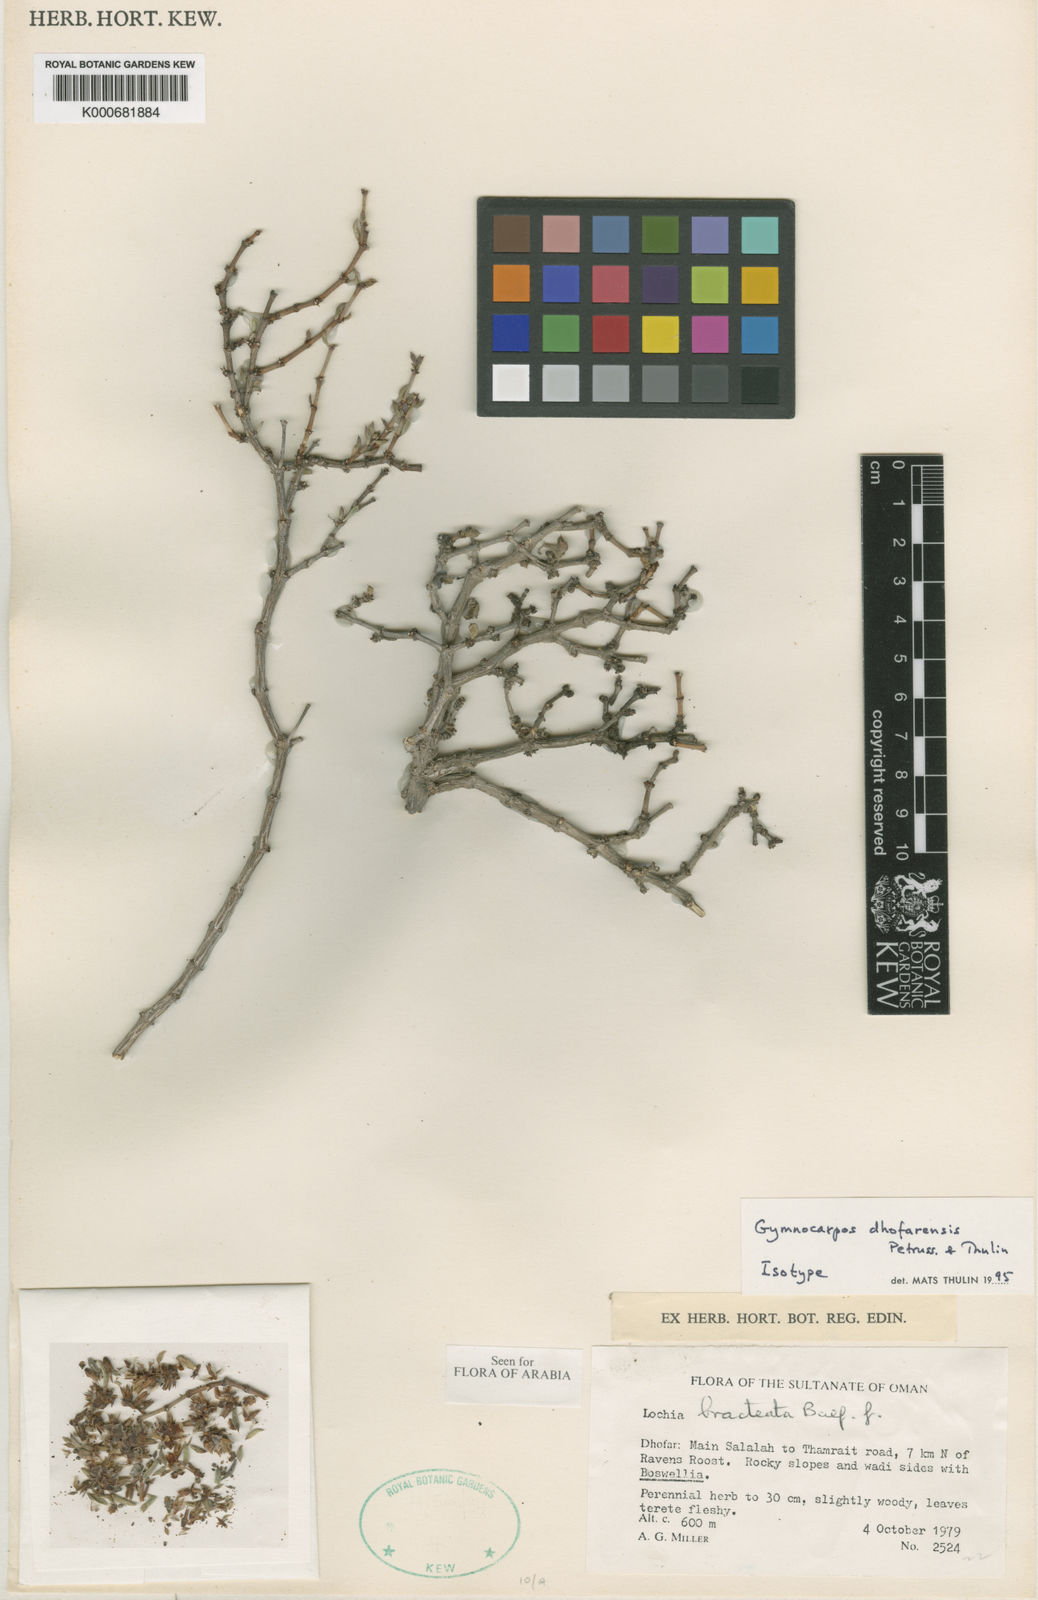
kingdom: Plantae
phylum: Tracheophyta
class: Magnoliopsida
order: Caryophyllales
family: Caryophyllaceae
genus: Gymnocarpos
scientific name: Gymnocarpos dhofarensis
